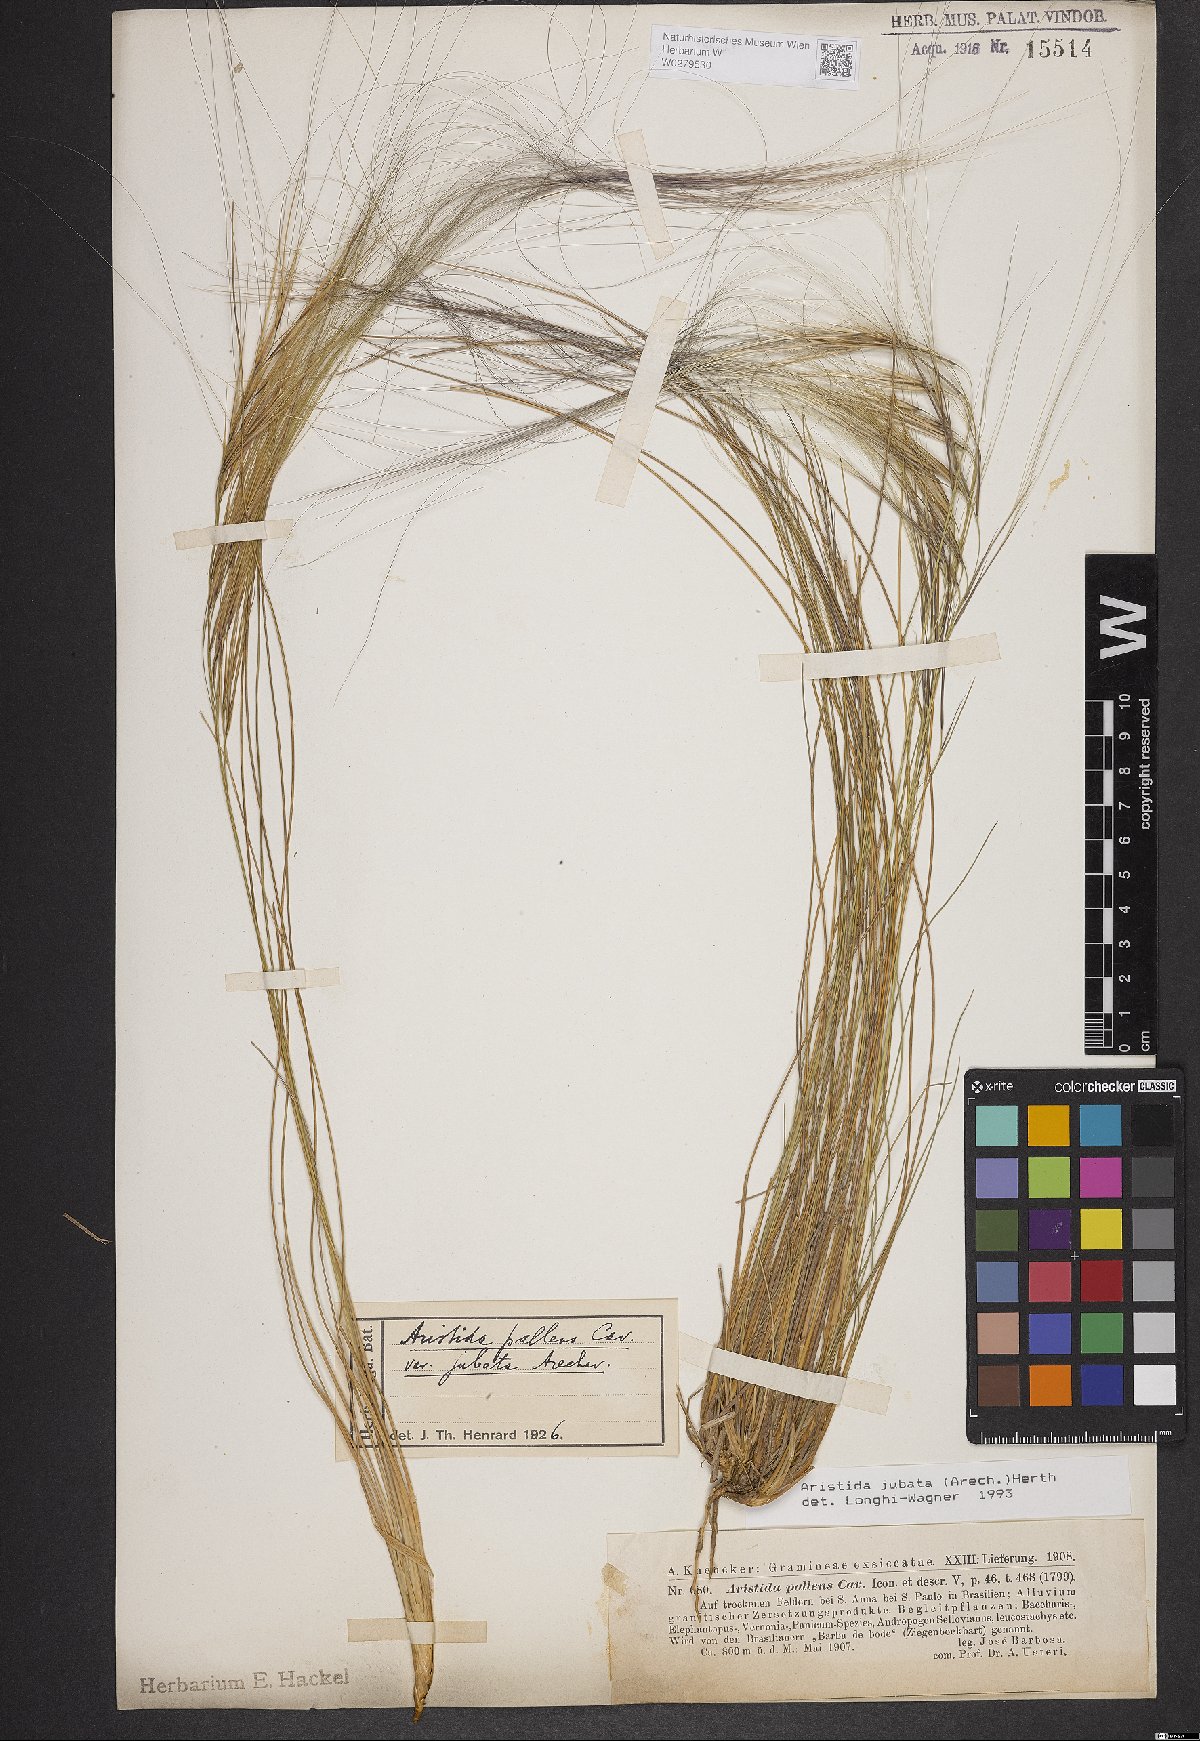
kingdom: Plantae
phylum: Tracheophyta
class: Liliopsida
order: Poales
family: Poaceae
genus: Aristida
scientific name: Aristida jubata
